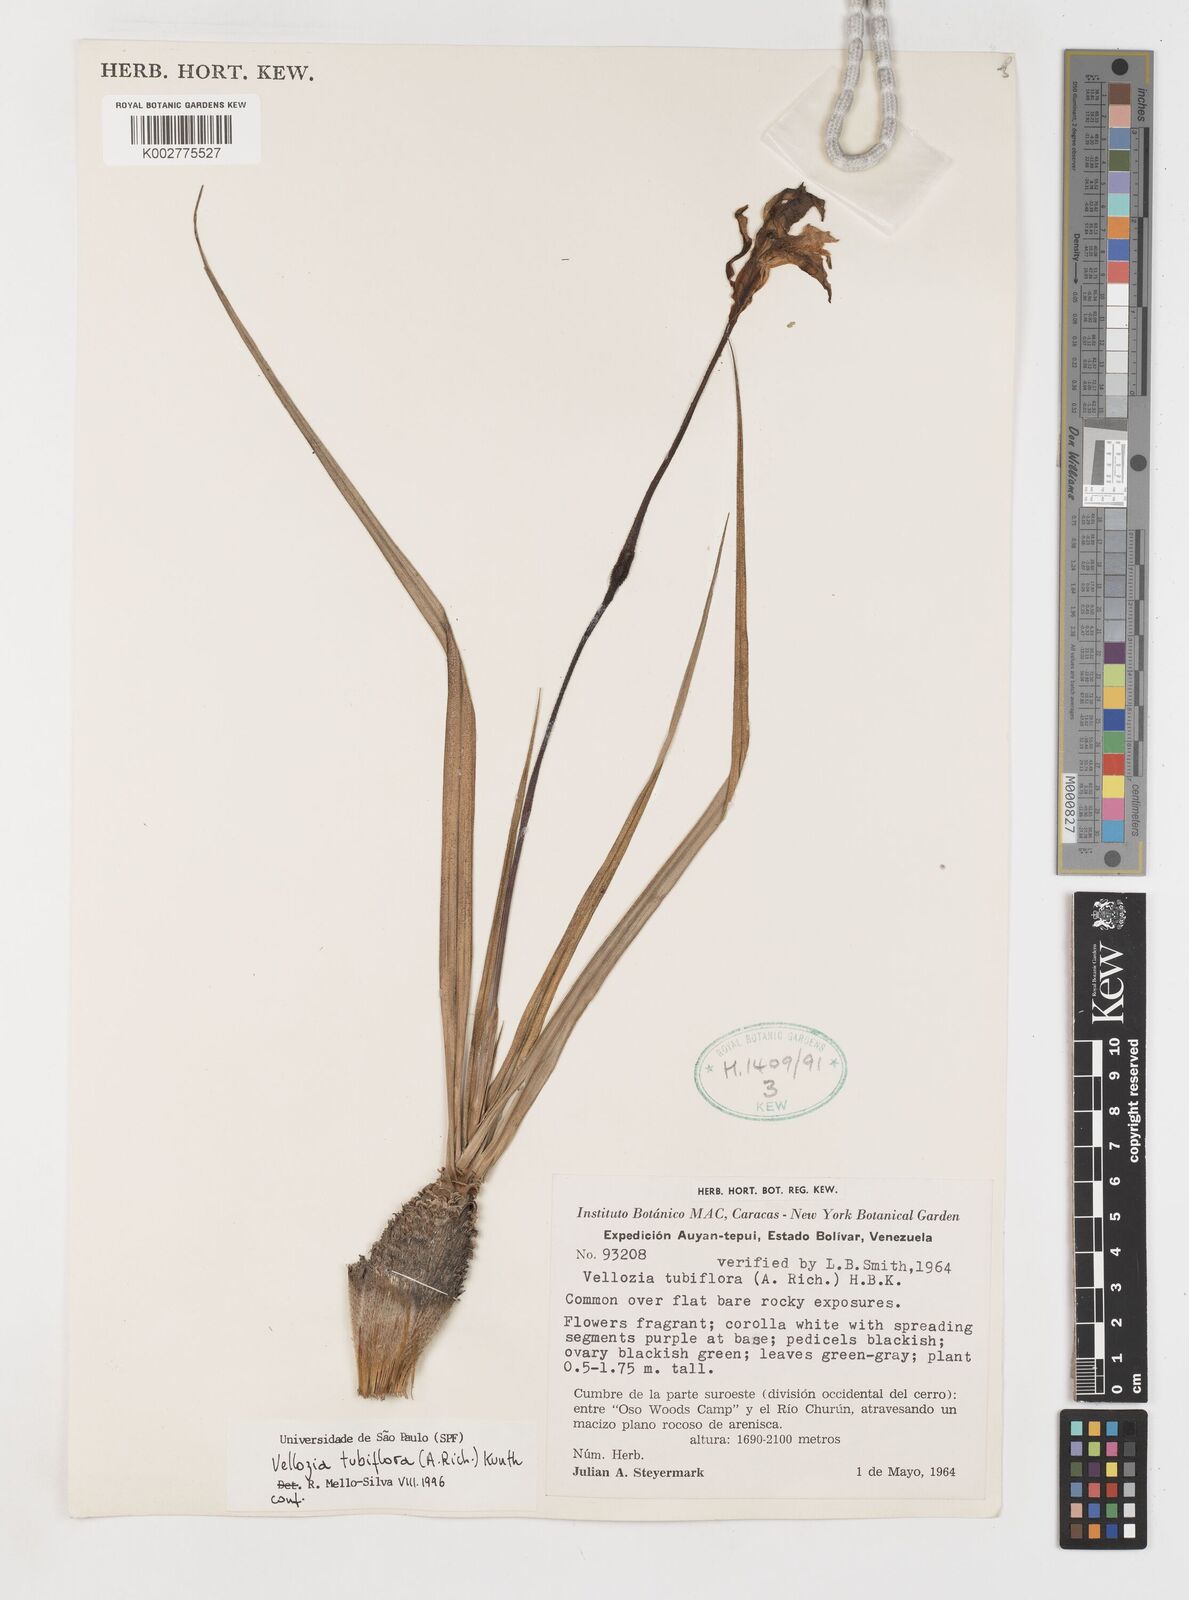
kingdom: Plantae
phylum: Tracheophyta
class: Liliopsida
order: Pandanales
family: Velloziaceae
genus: Vellozia
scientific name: Vellozia tubiflora
